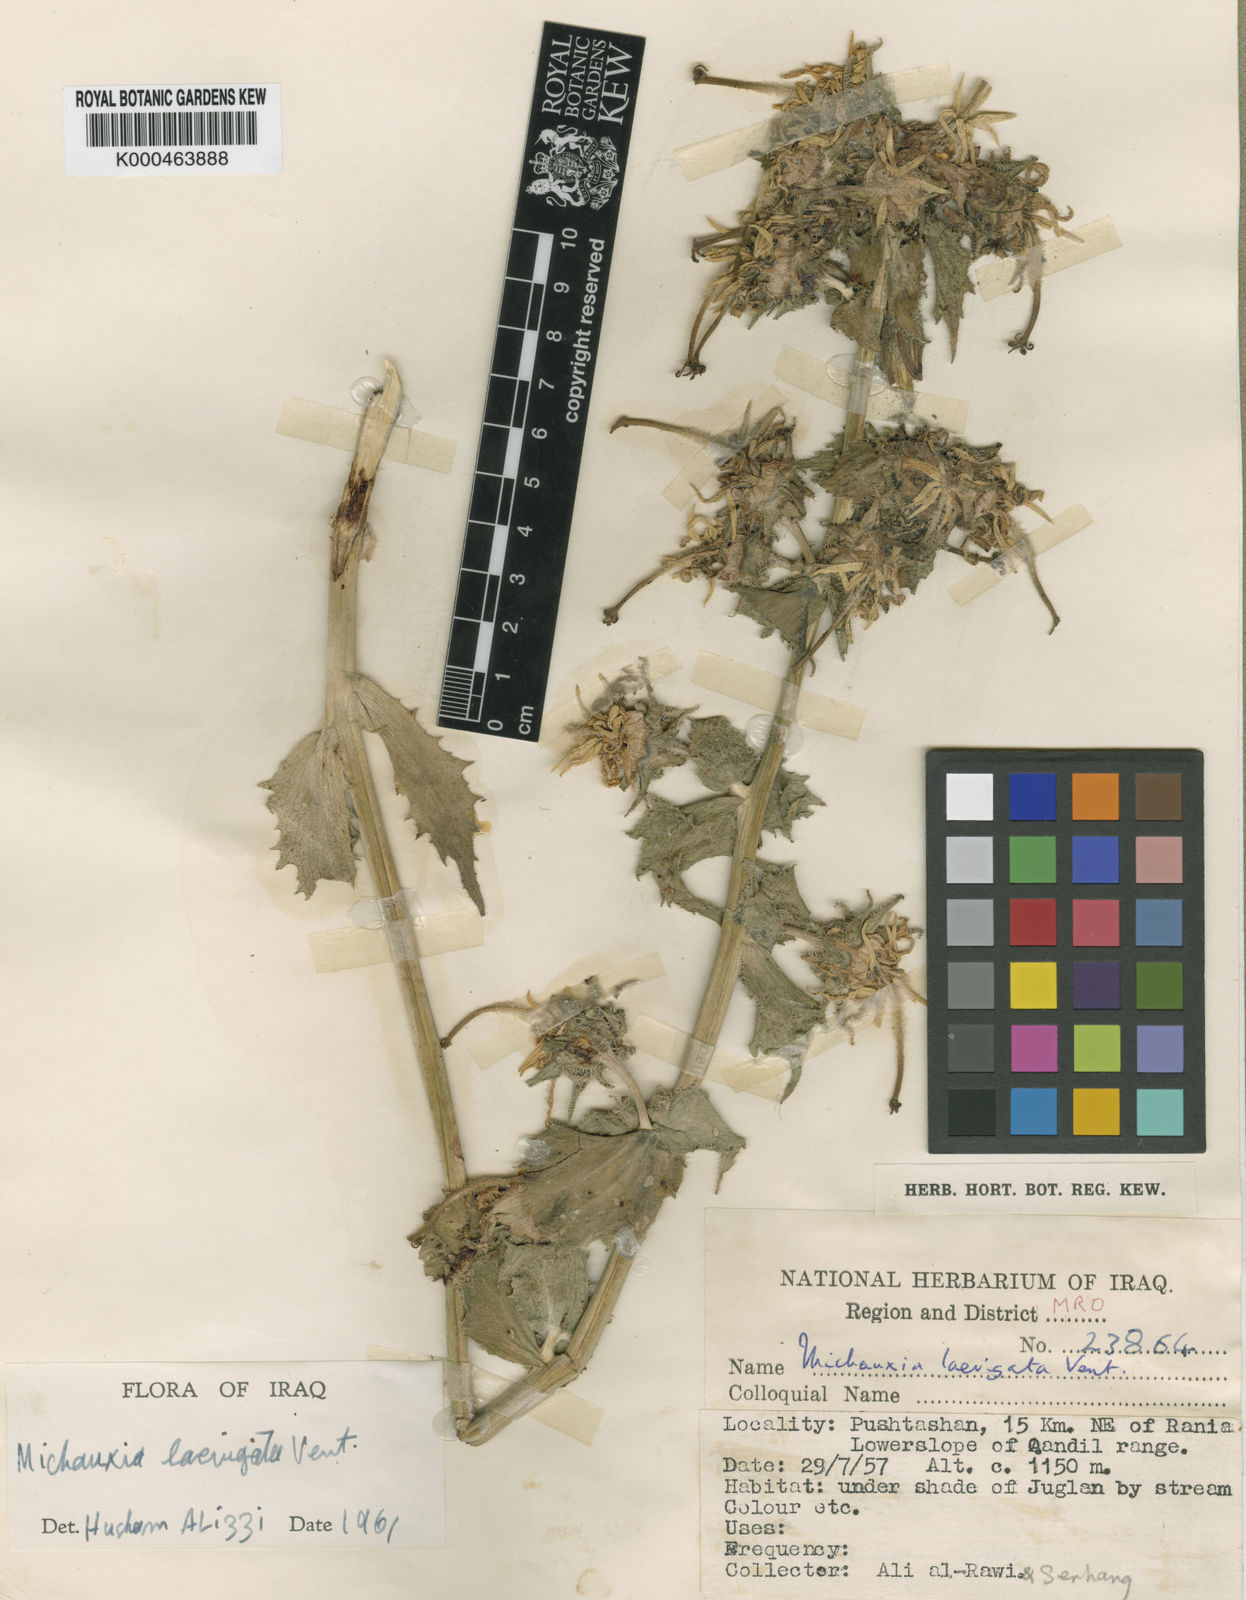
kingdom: Plantae
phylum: Tracheophyta
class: Magnoliopsida
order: Asterales
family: Campanulaceae
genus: Michauxia
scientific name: Michauxia laevigata
